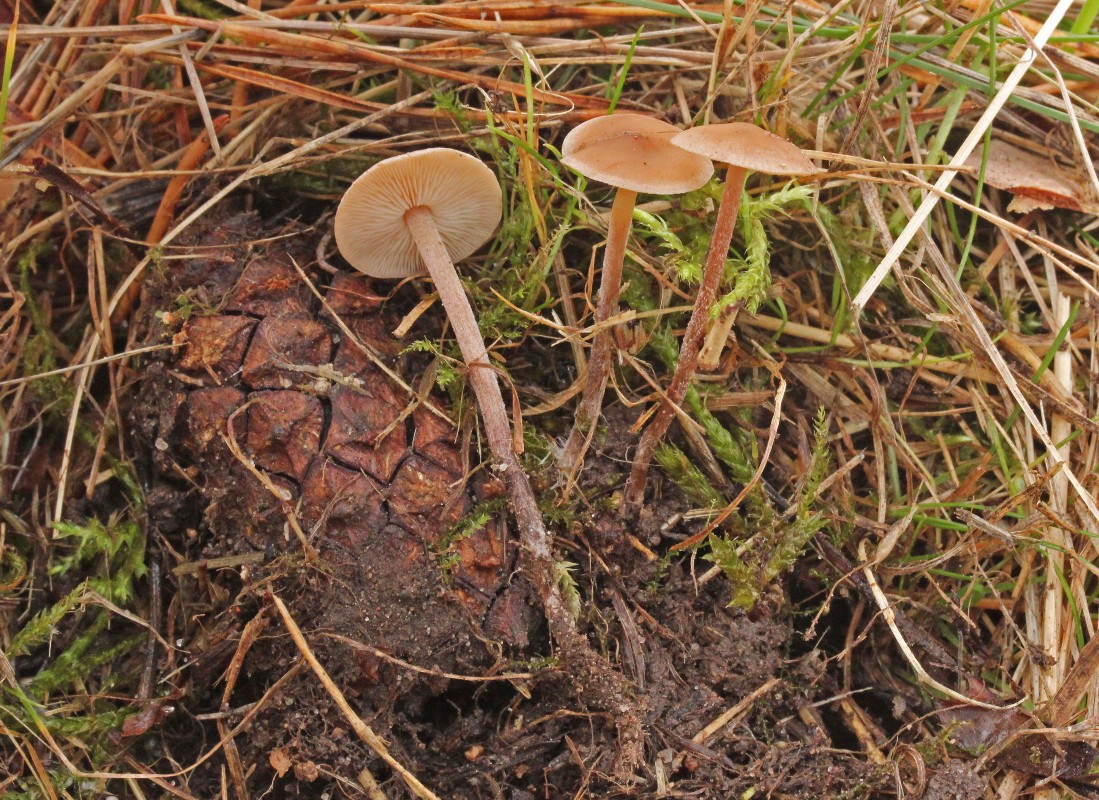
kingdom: Fungi
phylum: Basidiomycota
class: Agaricomycetes
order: Agaricales
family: Marasmiaceae
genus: Baeospora
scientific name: Baeospora myosura
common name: koglebruskhat
